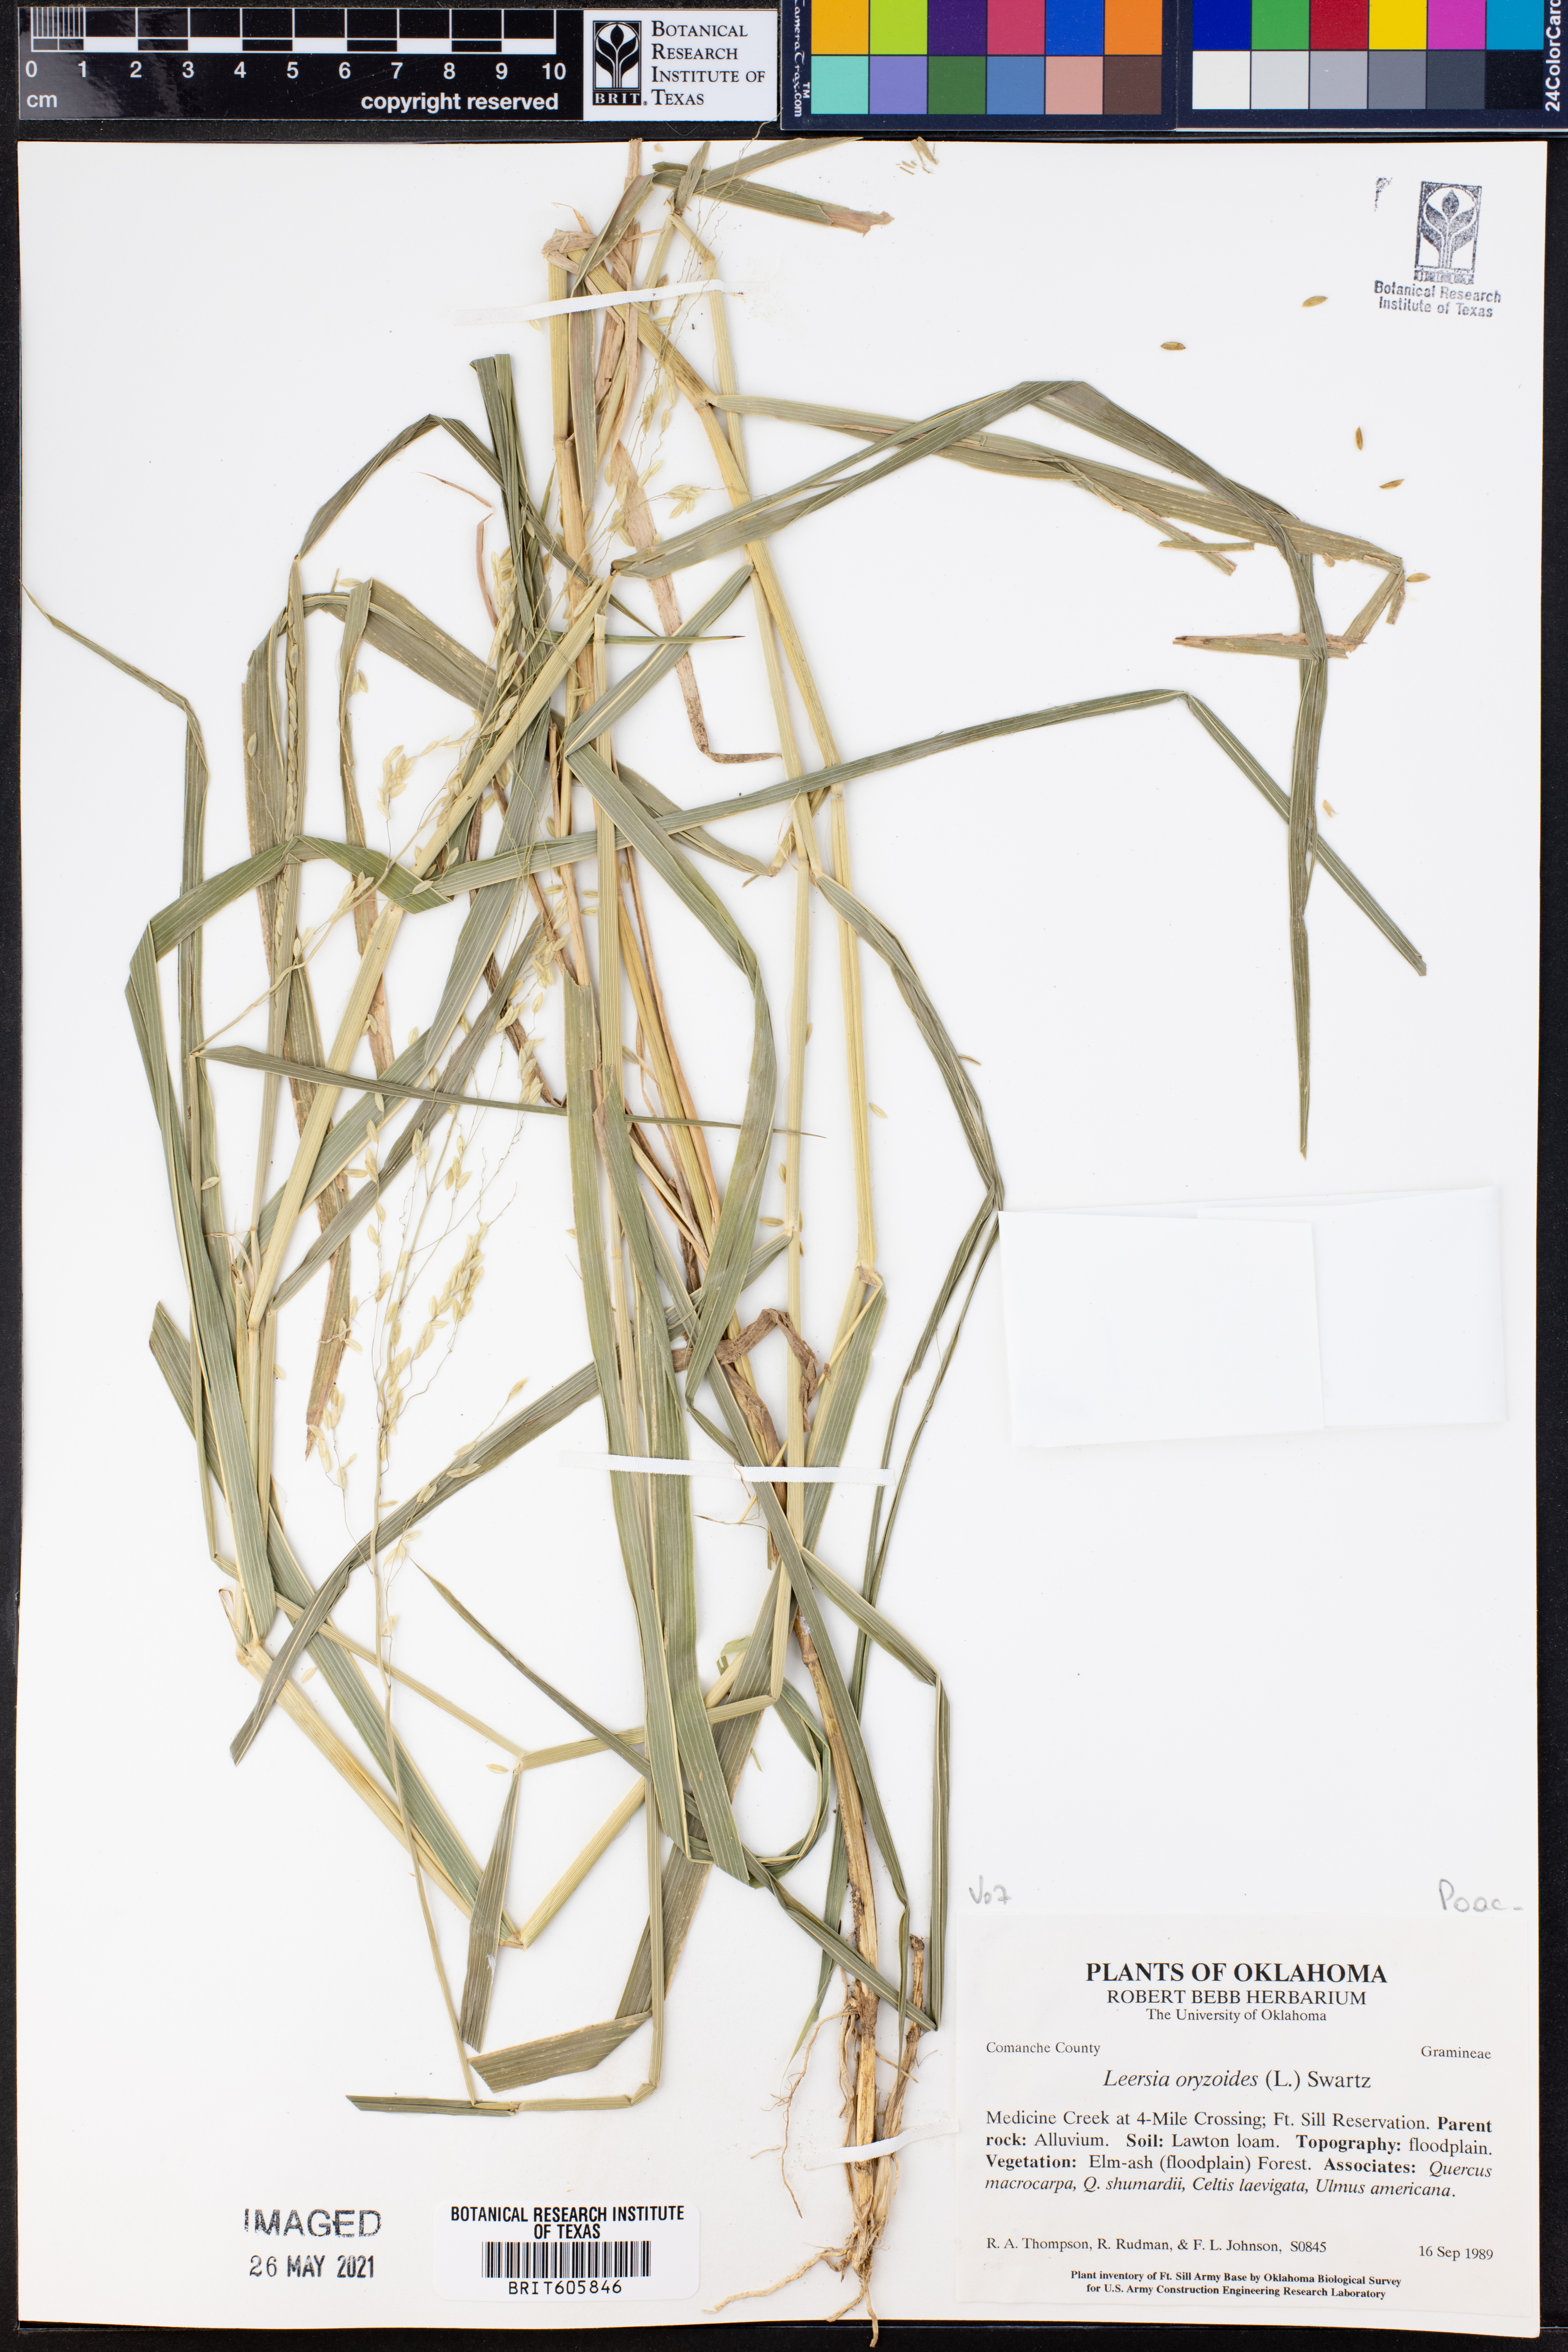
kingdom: Plantae
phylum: Tracheophyta
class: Liliopsida
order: Poales
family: Poaceae
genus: Leersia
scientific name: Leersia oryzoides
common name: Cut-grass
